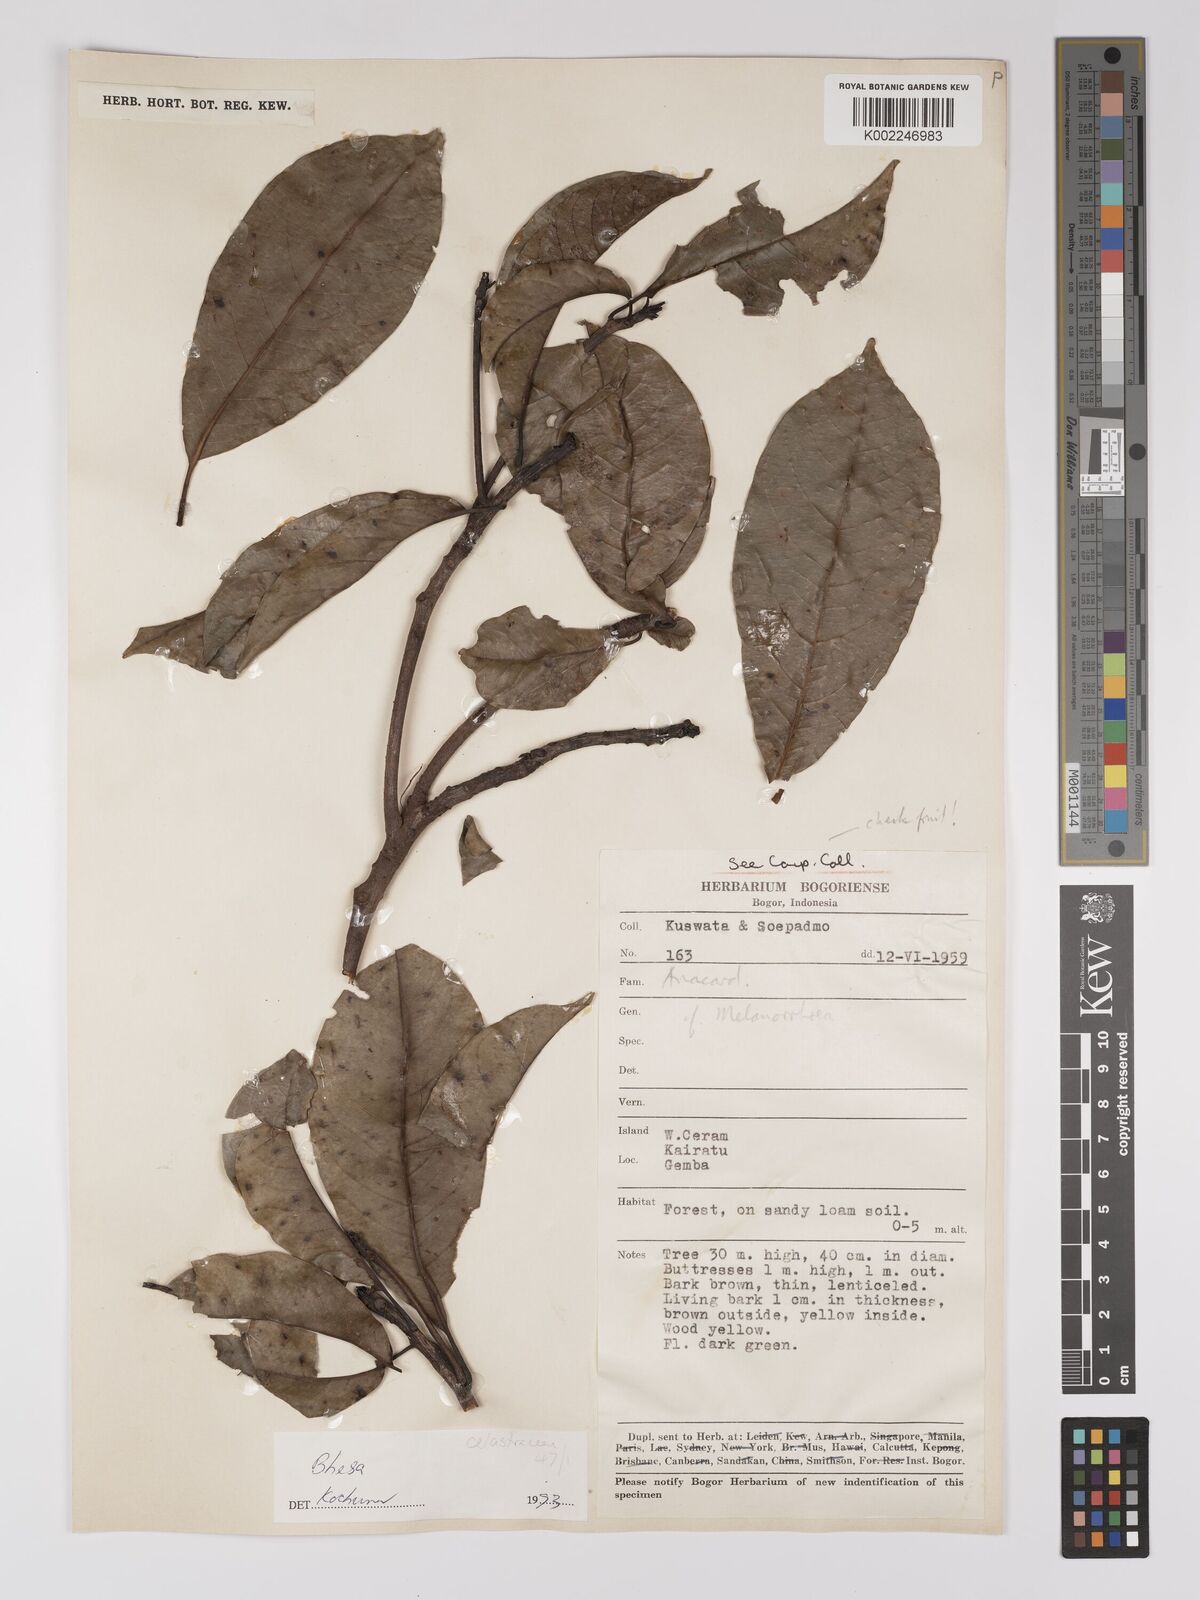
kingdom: Plantae
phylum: Tracheophyta
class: Magnoliopsida
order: Malpighiales
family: Centroplacaceae
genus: Bhesa
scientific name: Bhesa
